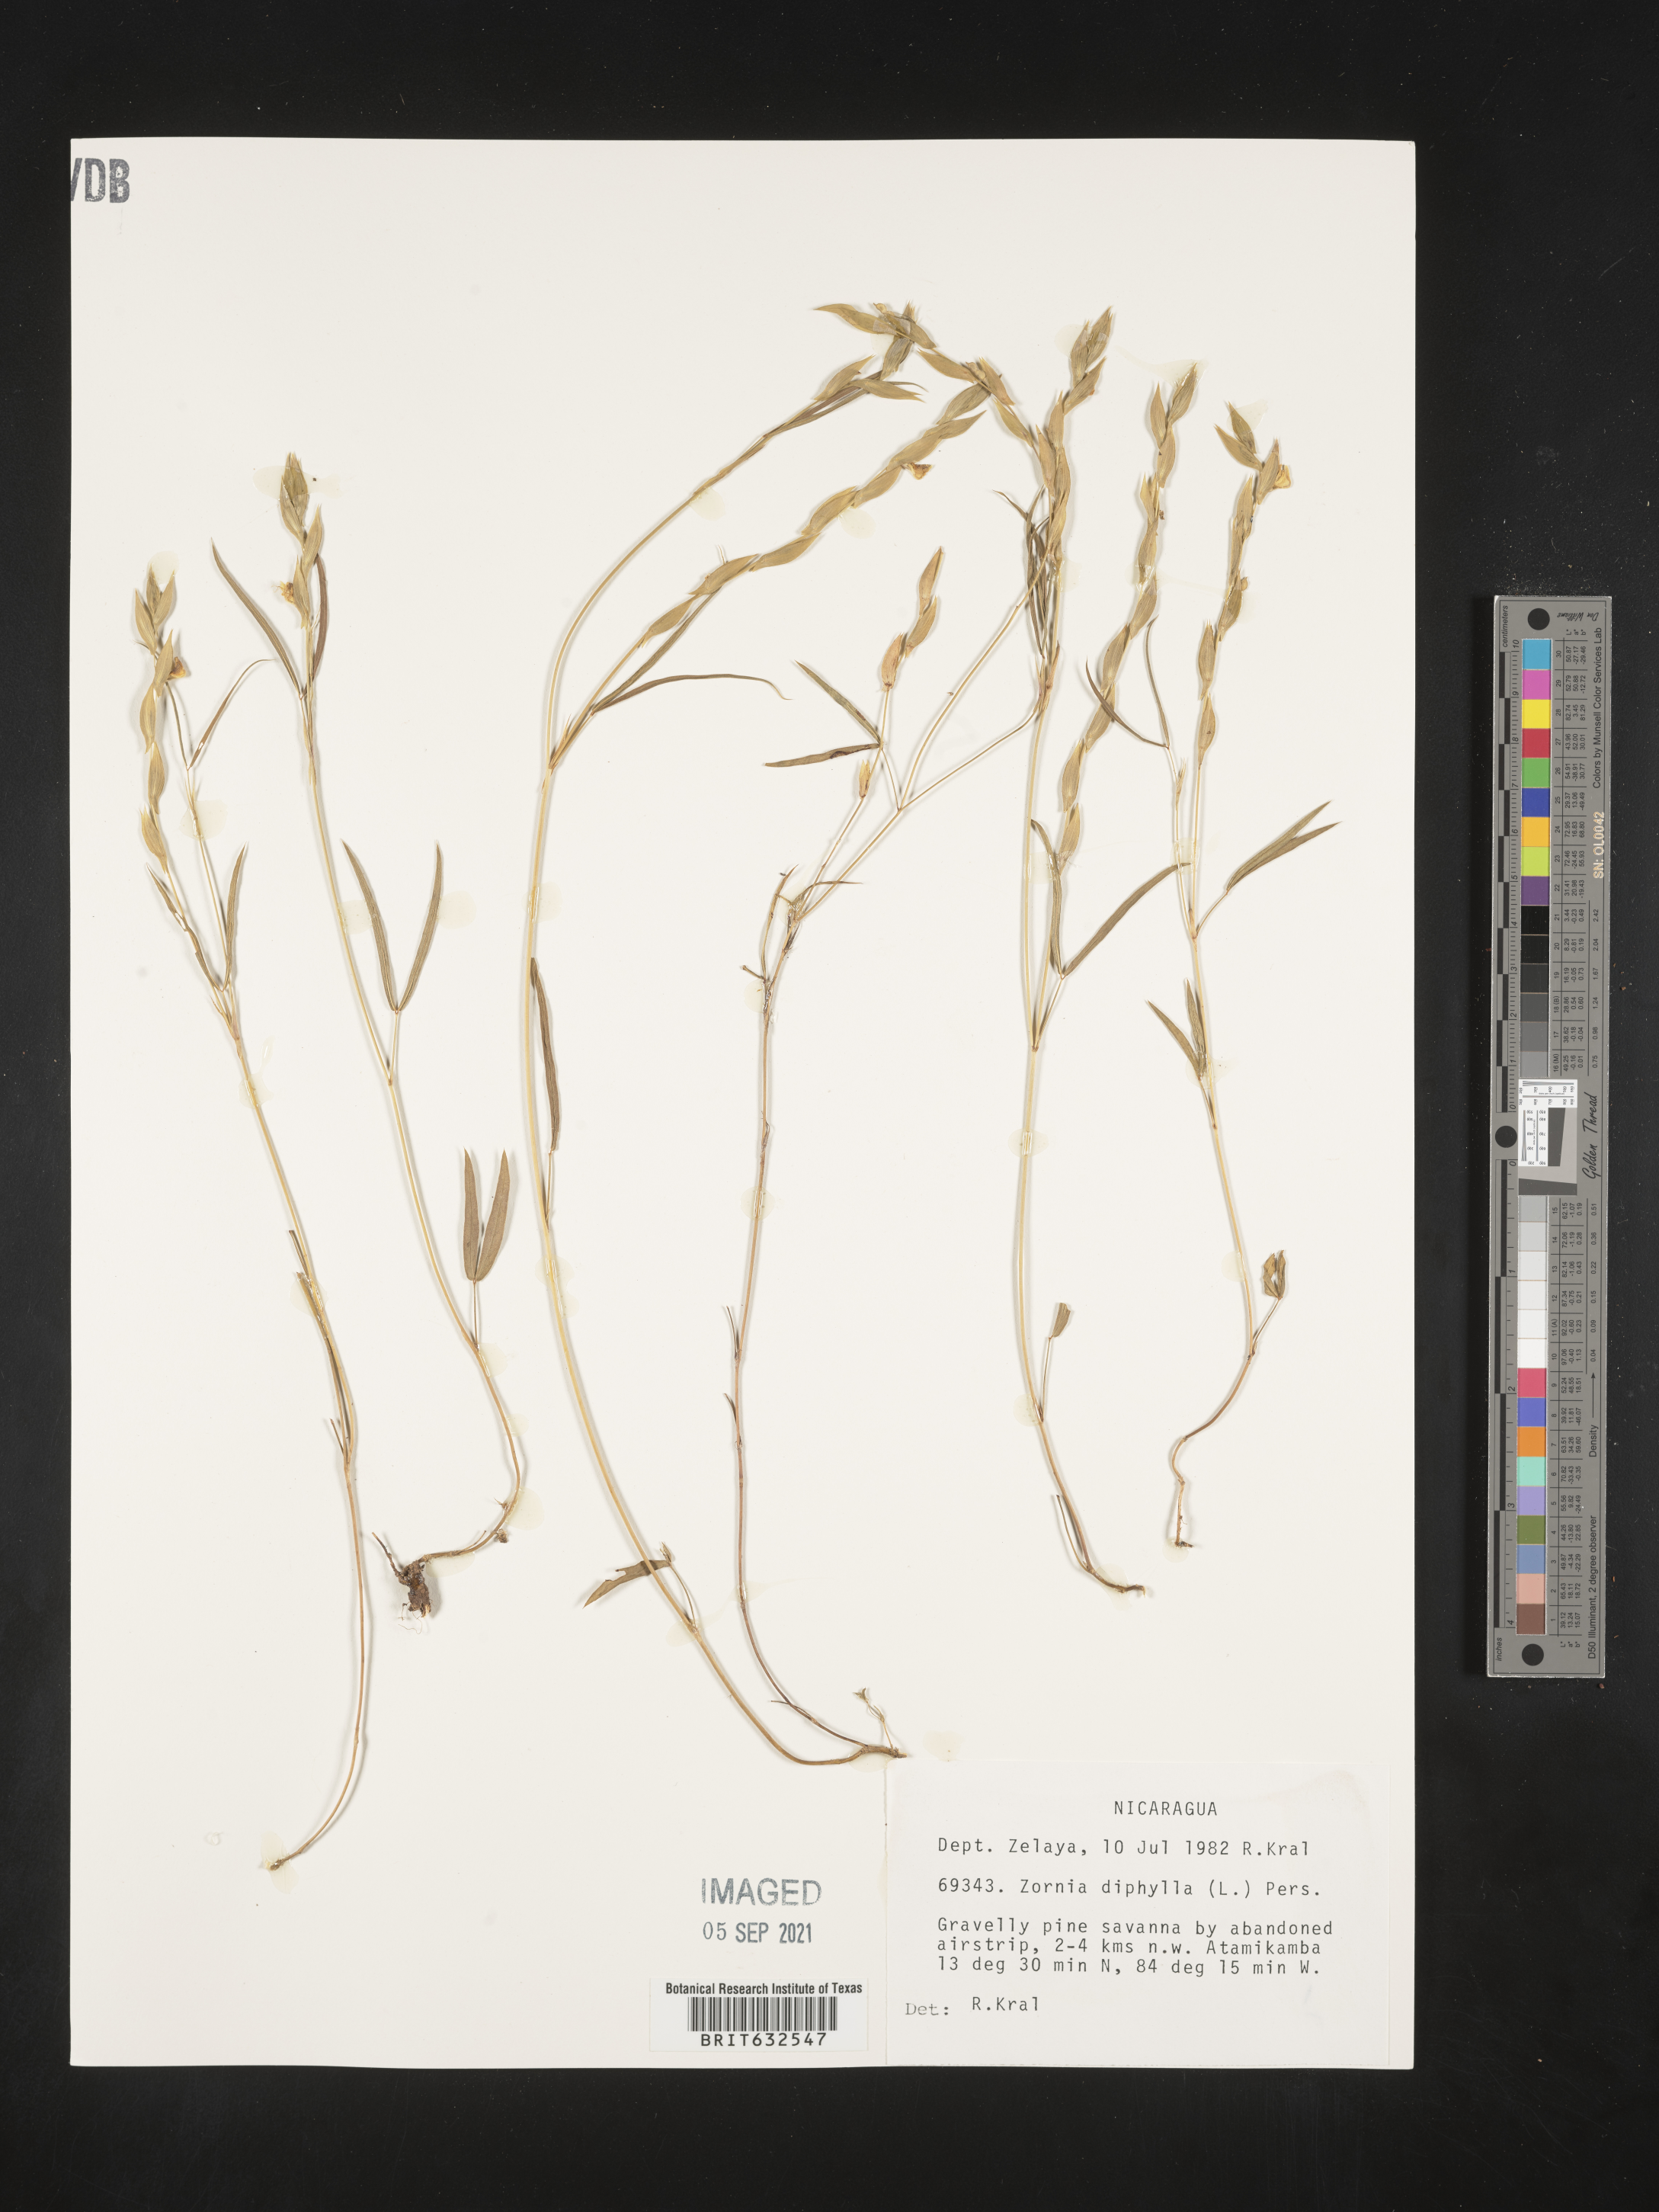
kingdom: Plantae
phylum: Tracheophyta
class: Magnoliopsida
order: Fabales
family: Fabaceae
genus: Zornia
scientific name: Zornia
